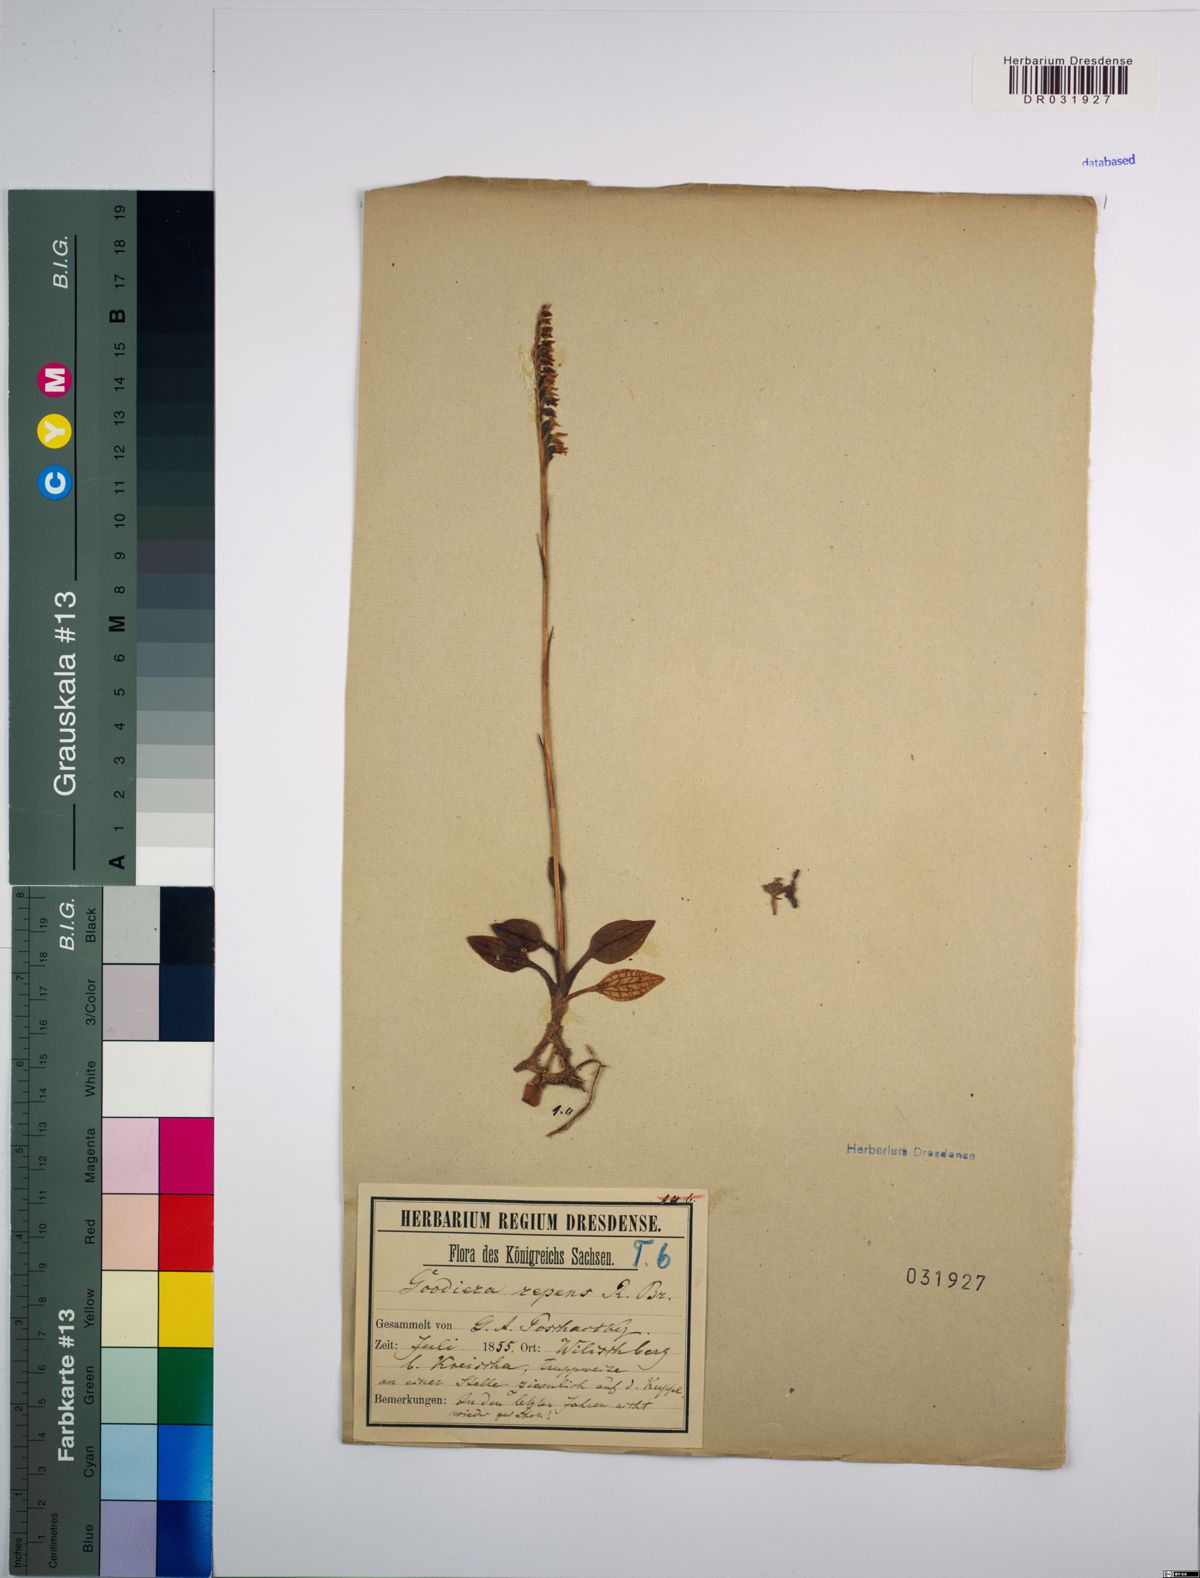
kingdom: Plantae
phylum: Tracheophyta
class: Liliopsida
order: Asparagales
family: Orchidaceae
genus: Goodyera
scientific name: Goodyera repens
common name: Creeping lady's-tresses
